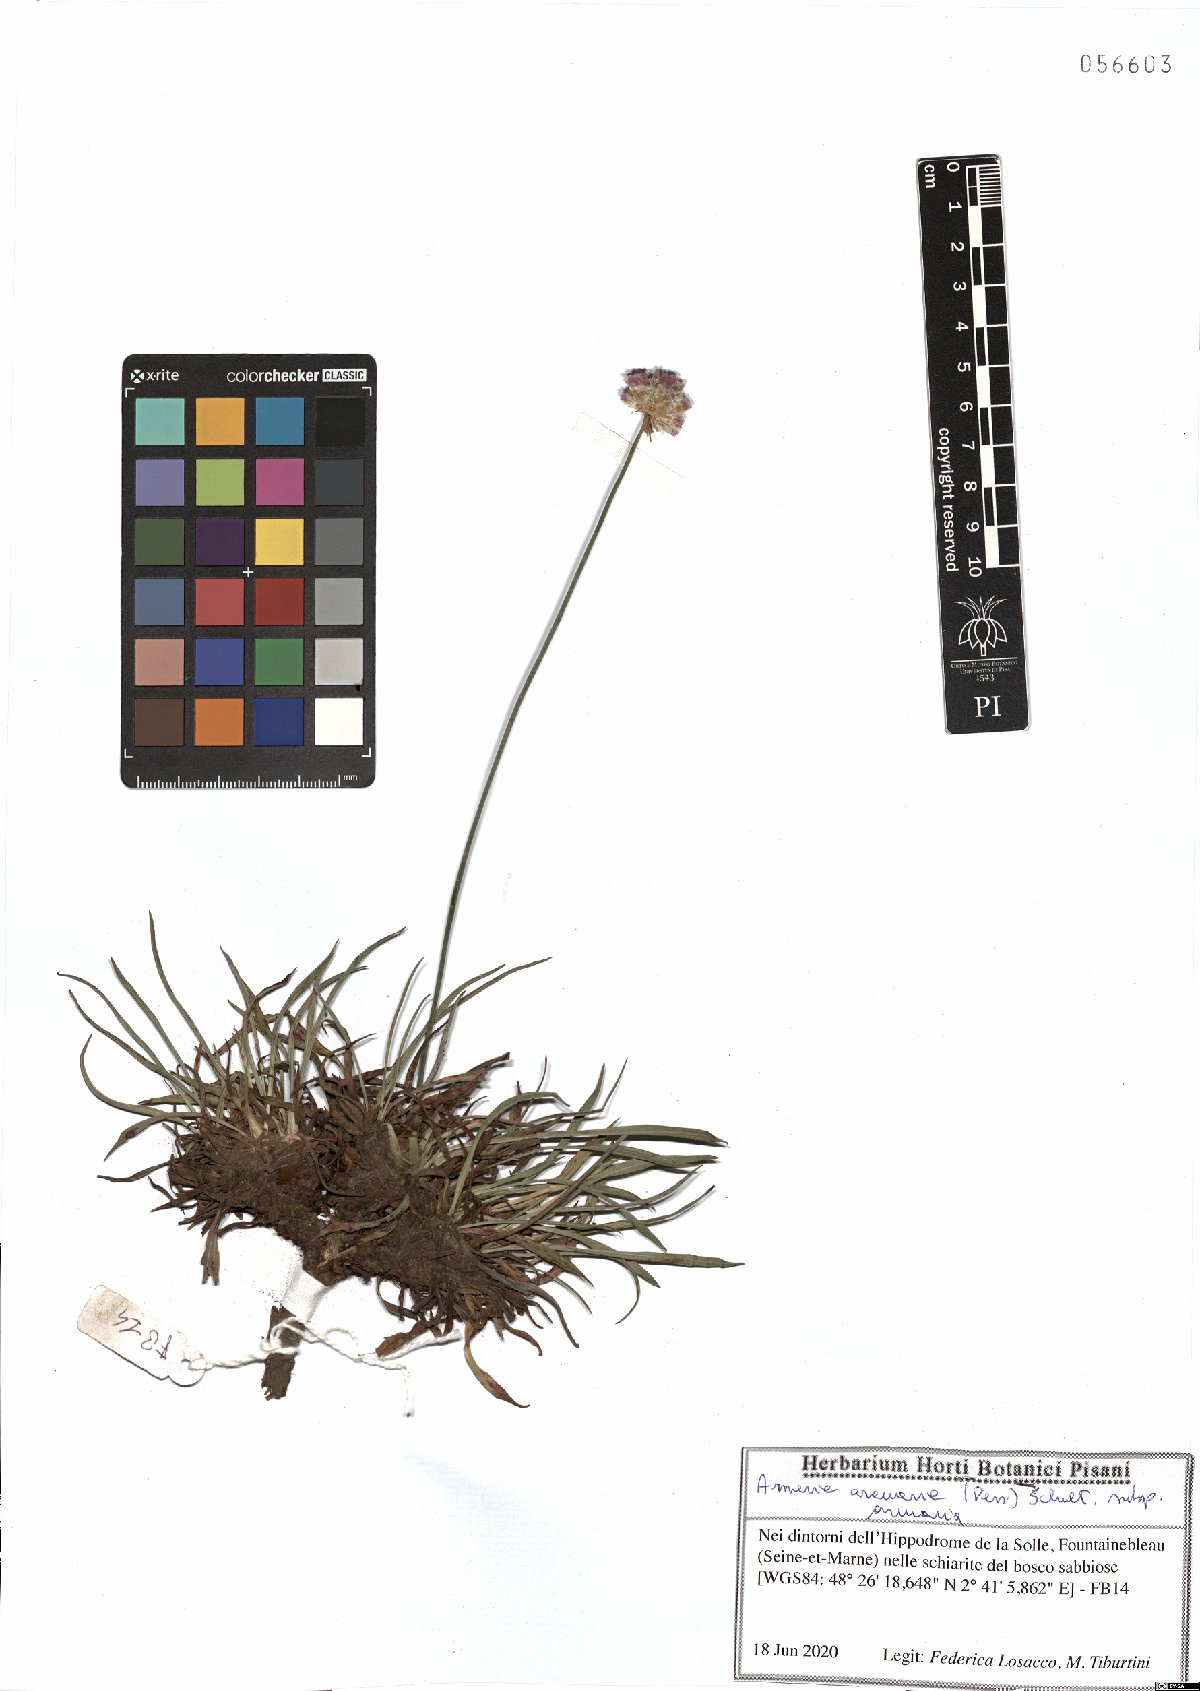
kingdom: Plantae
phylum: Tracheophyta
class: Magnoliopsida
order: Caryophyllales
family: Plumbaginaceae
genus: Armeria
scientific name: Armeria arenaria
